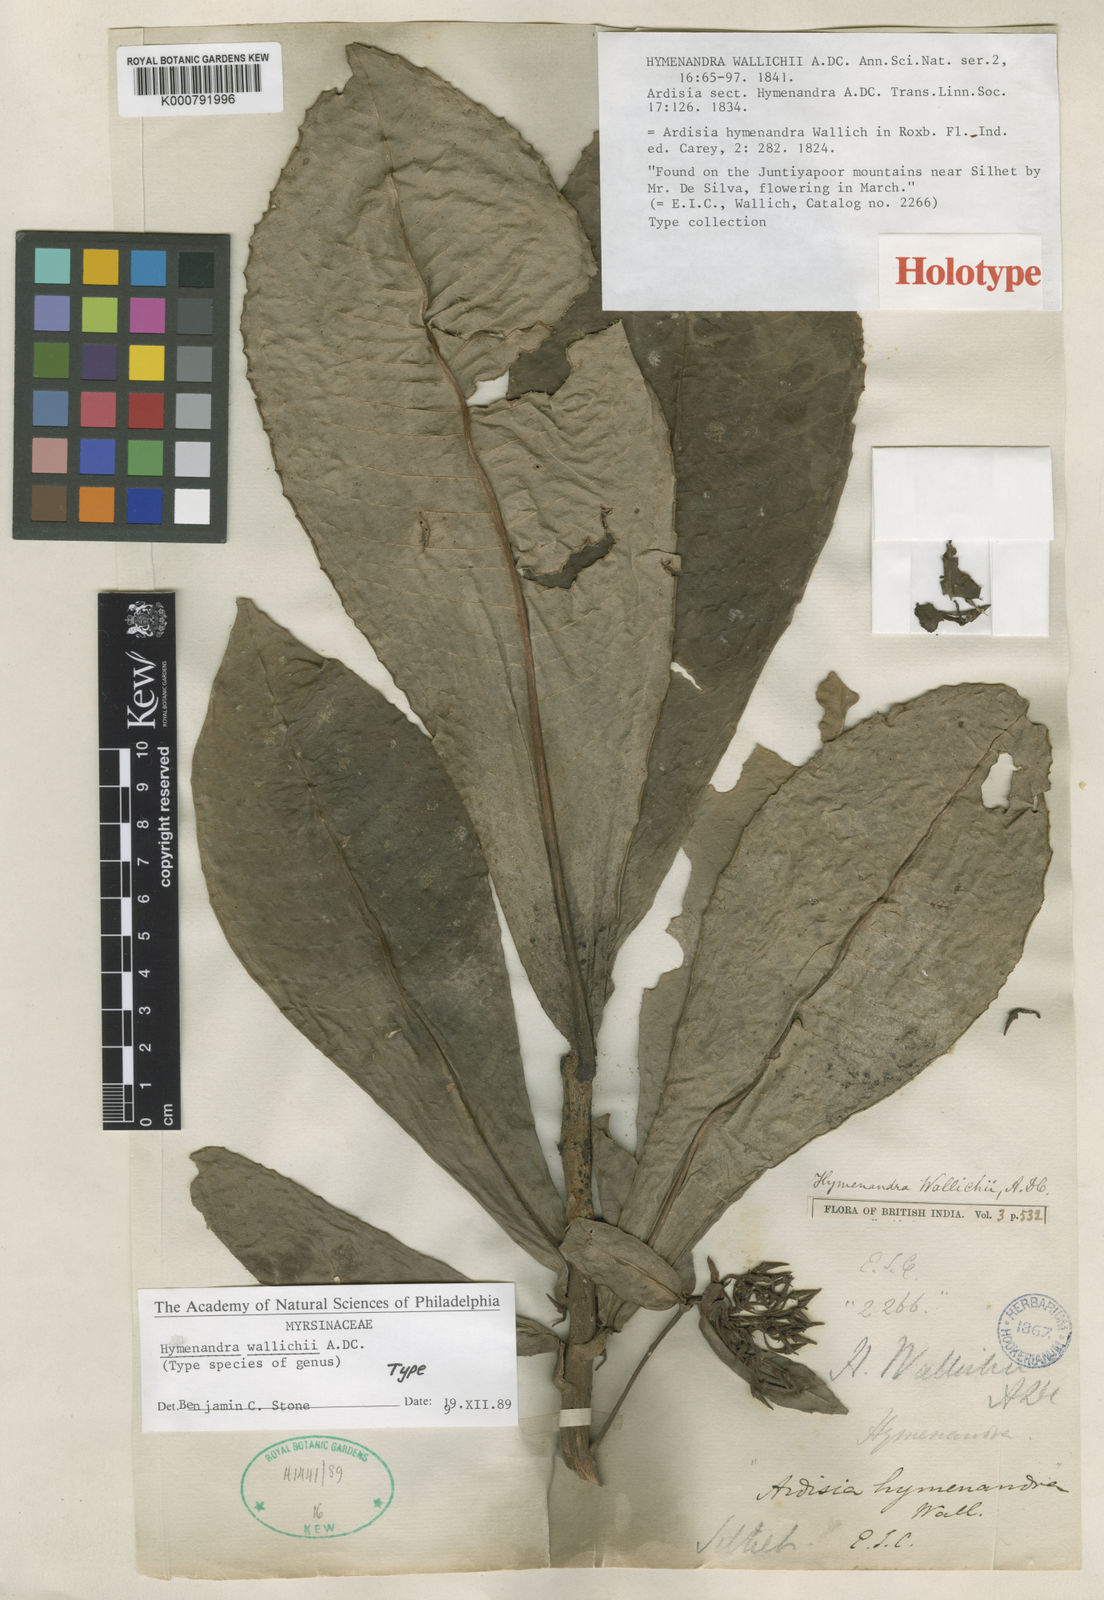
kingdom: Plantae
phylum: Tracheophyta
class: Magnoliopsida
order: Ericales
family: Primulaceae
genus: Ardisia
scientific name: Ardisia
